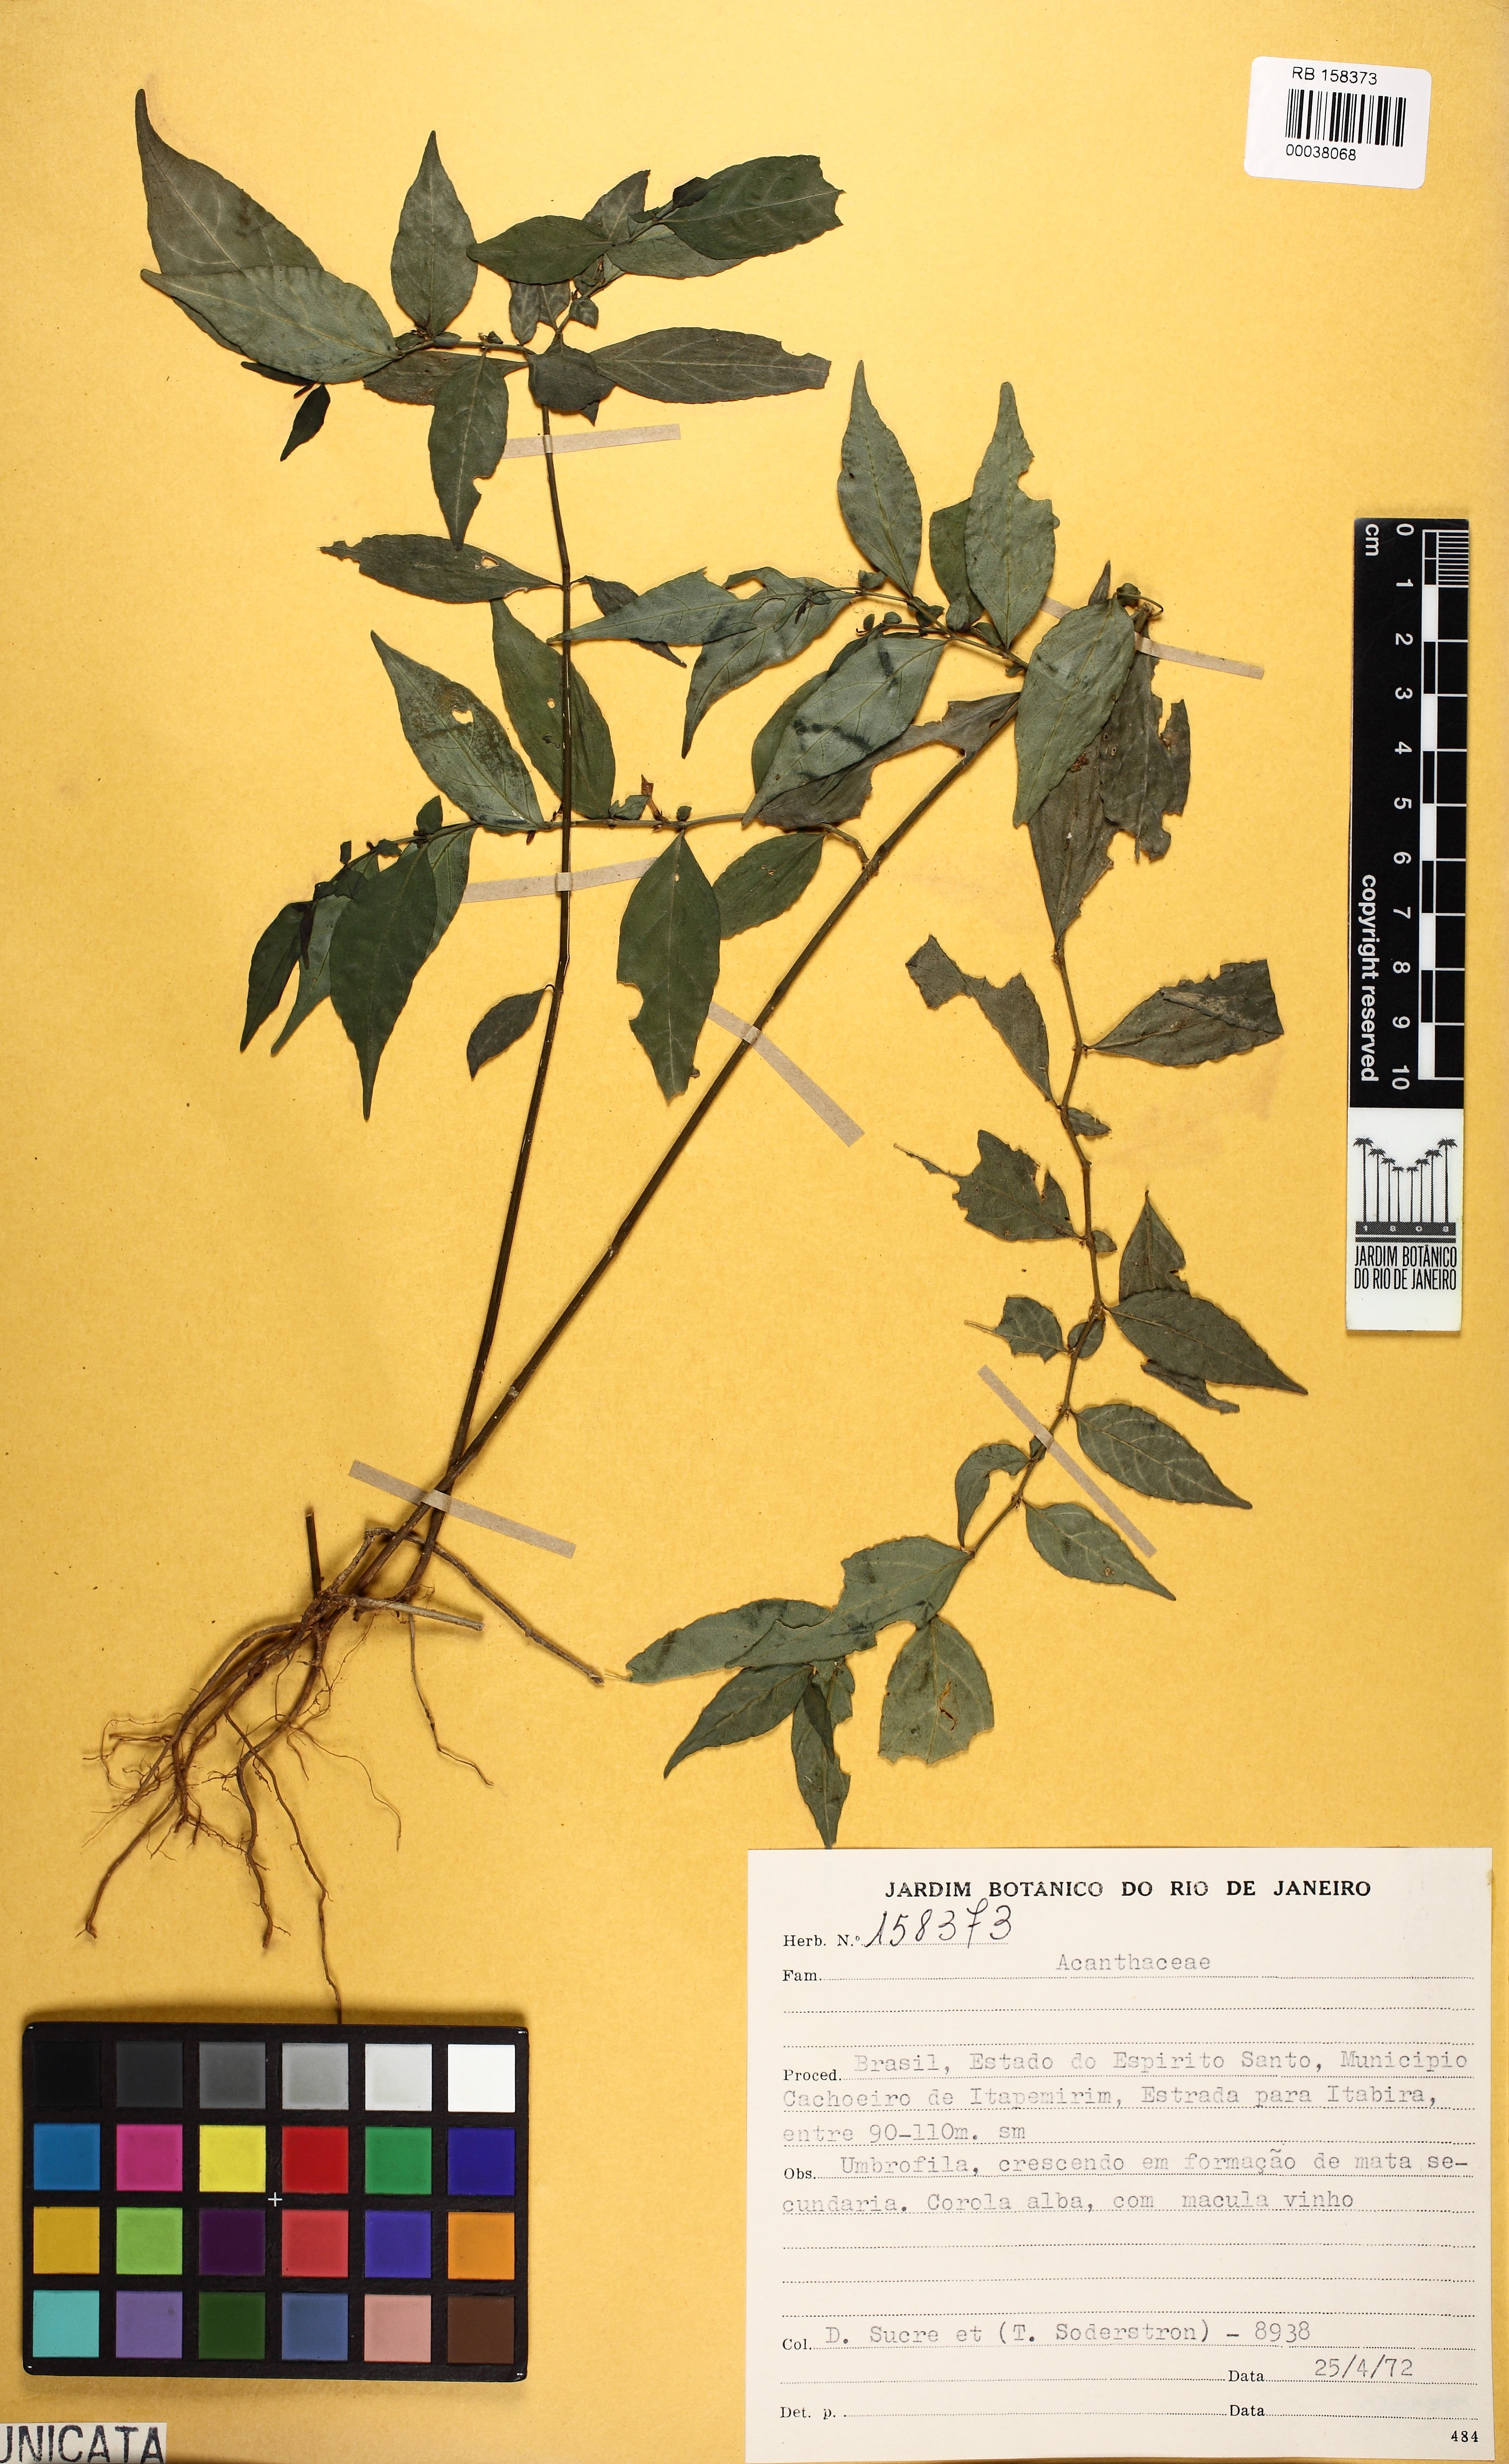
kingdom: Plantae
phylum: Tracheophyta
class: Magnoliopsida
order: Lamiales
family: Acanthaceae
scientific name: Acanthaceae
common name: Acanthaceae
